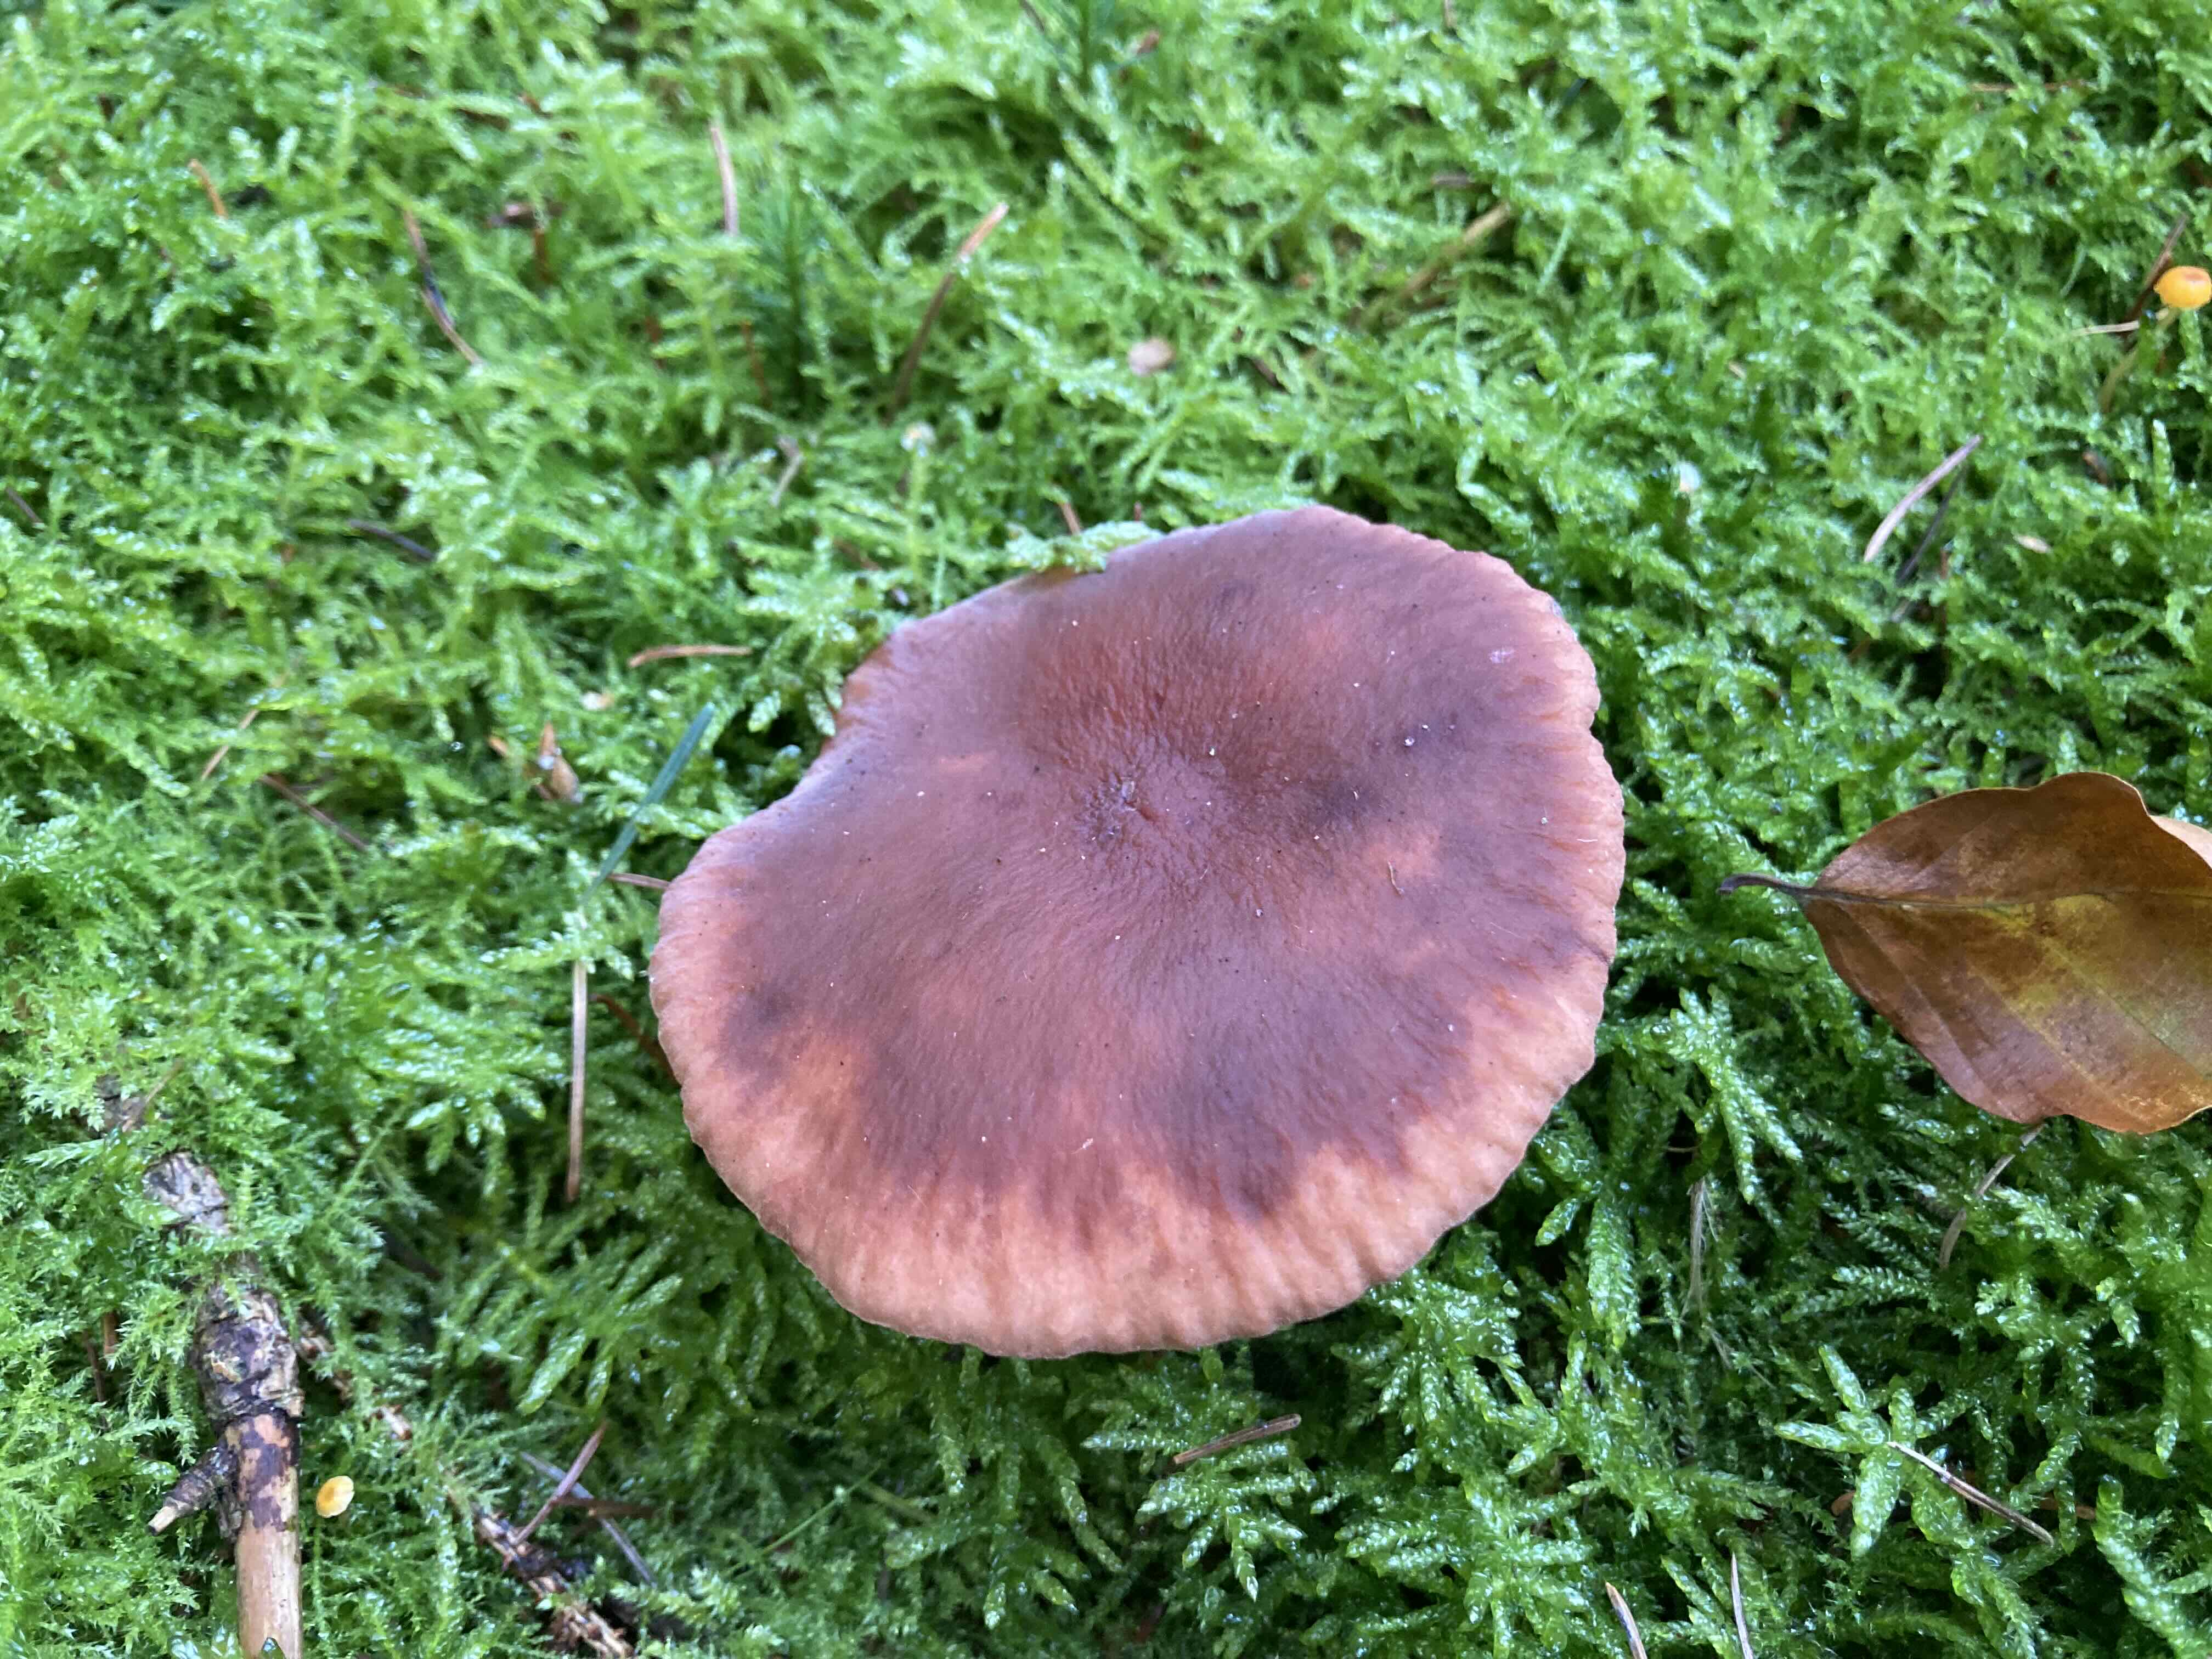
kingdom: Fungi
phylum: Basidiomycota
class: Agaricomycetes
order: Russulales
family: Russulaceae
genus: Lactarius
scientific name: Lactarius camphoratus
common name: kamfer-mælkehat
